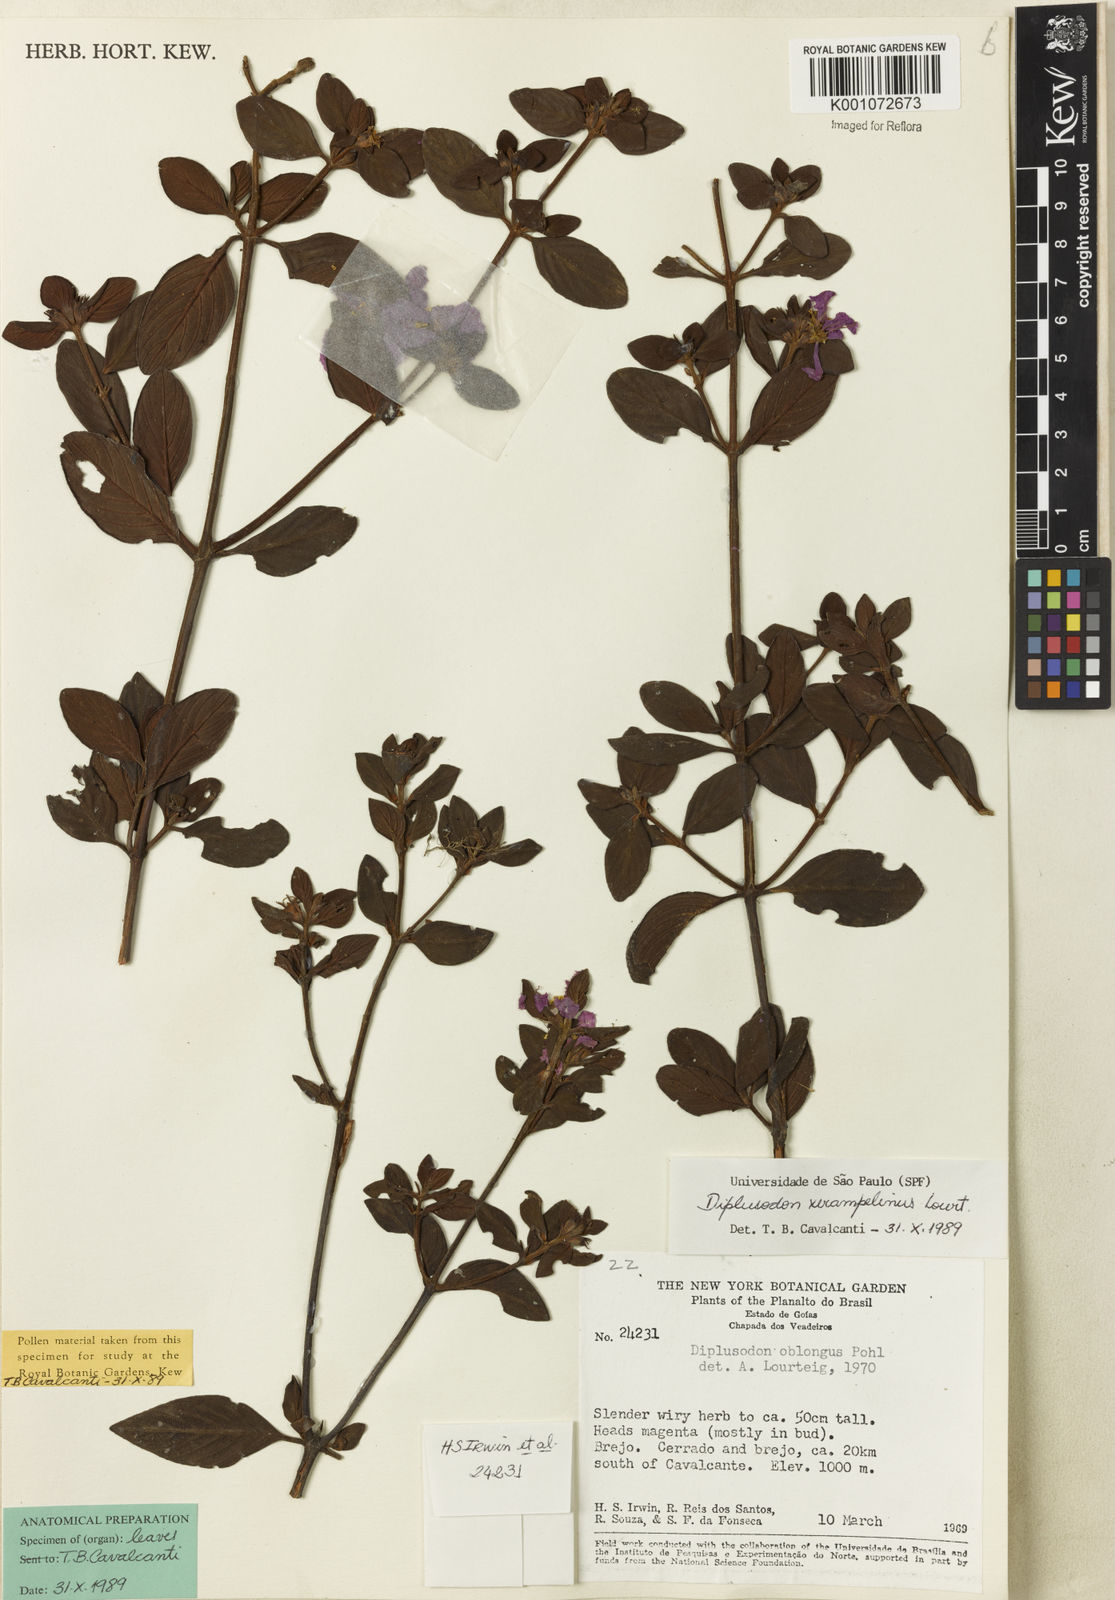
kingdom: Plantae
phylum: Tracheophyta
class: Magnoliopsida
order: Myrtales
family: Lythraceae
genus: Diplusodon
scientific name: Diplusodon nigricans
